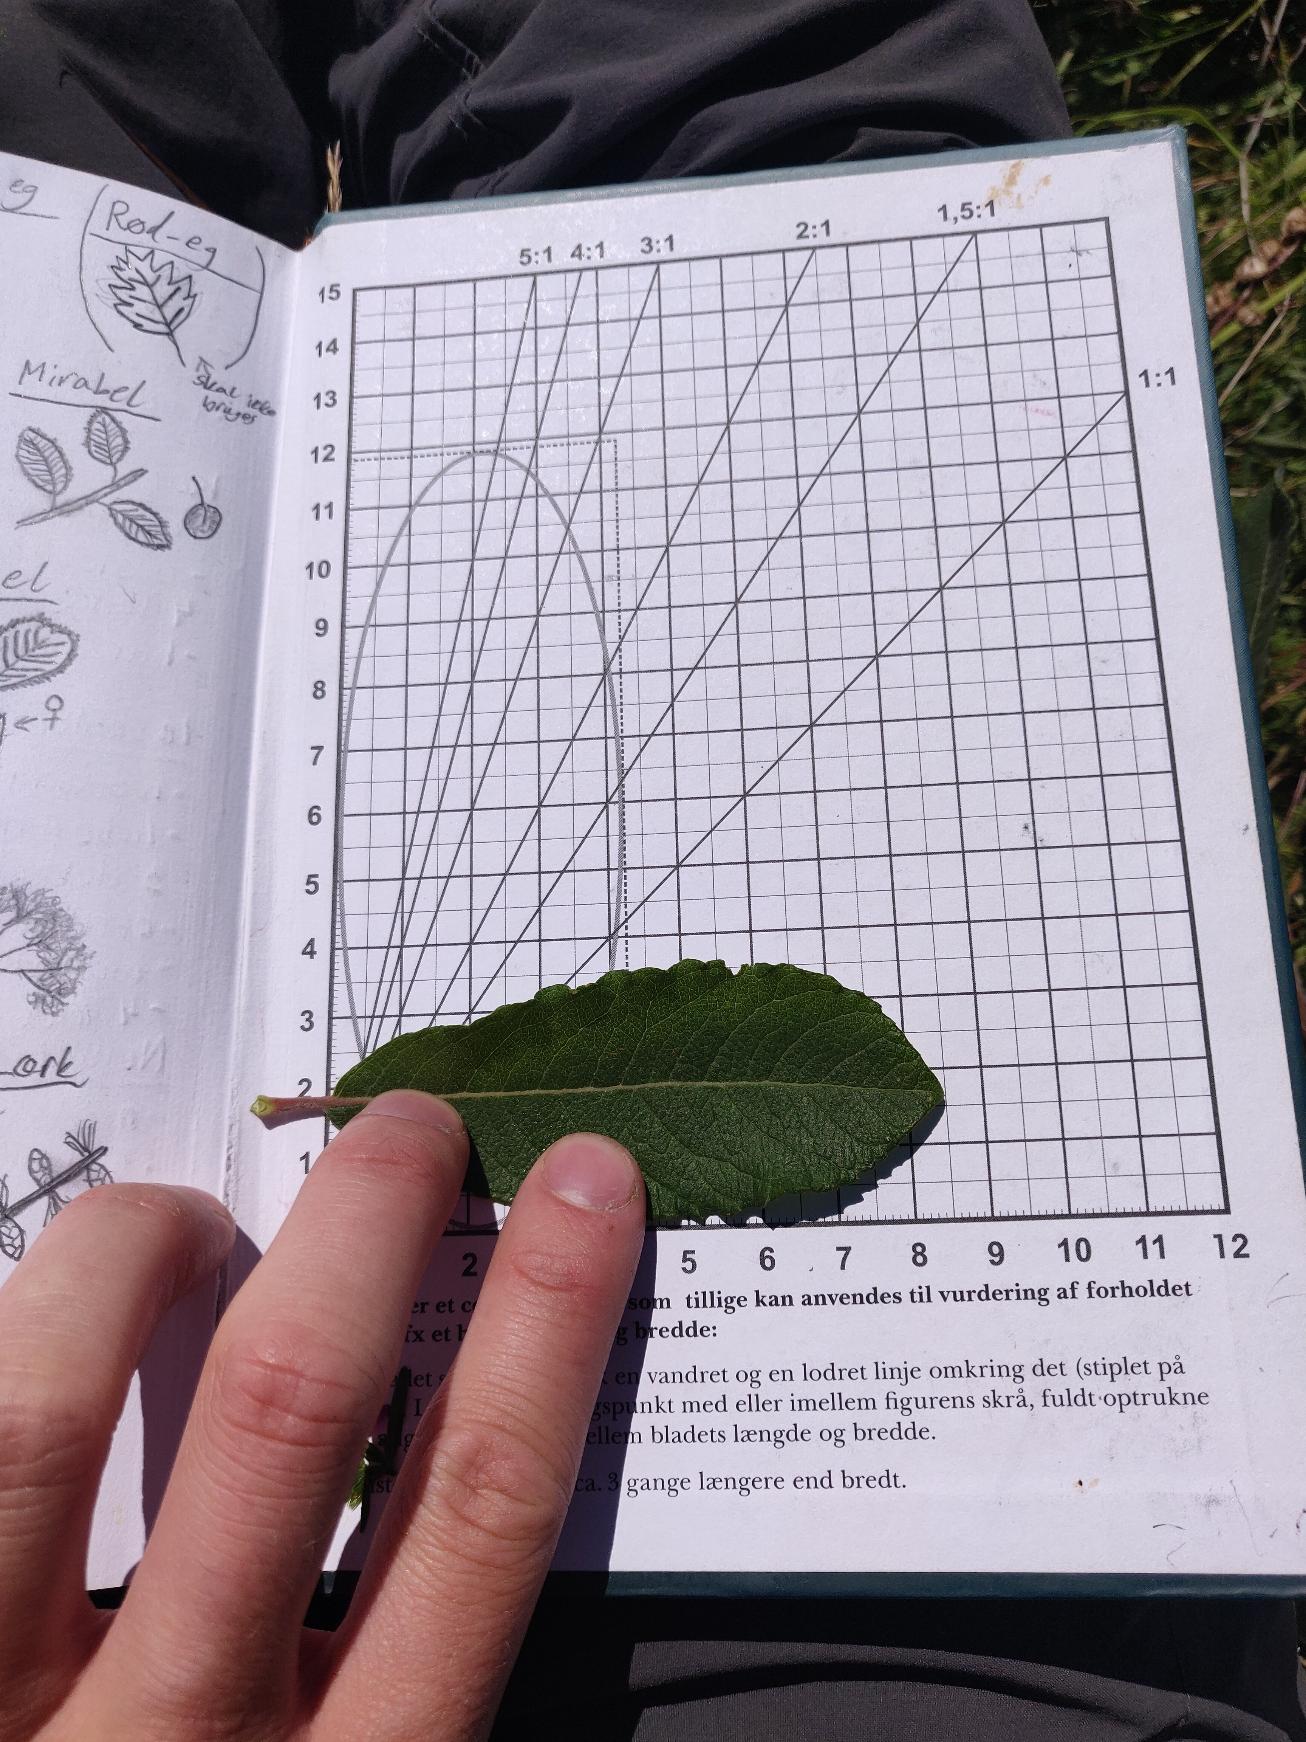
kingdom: Plantae
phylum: Tracheophyta
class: Magnoliopsida
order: Malpighiales
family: Salicaceae
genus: Salix
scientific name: Salix cinerea
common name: Grå-pil
